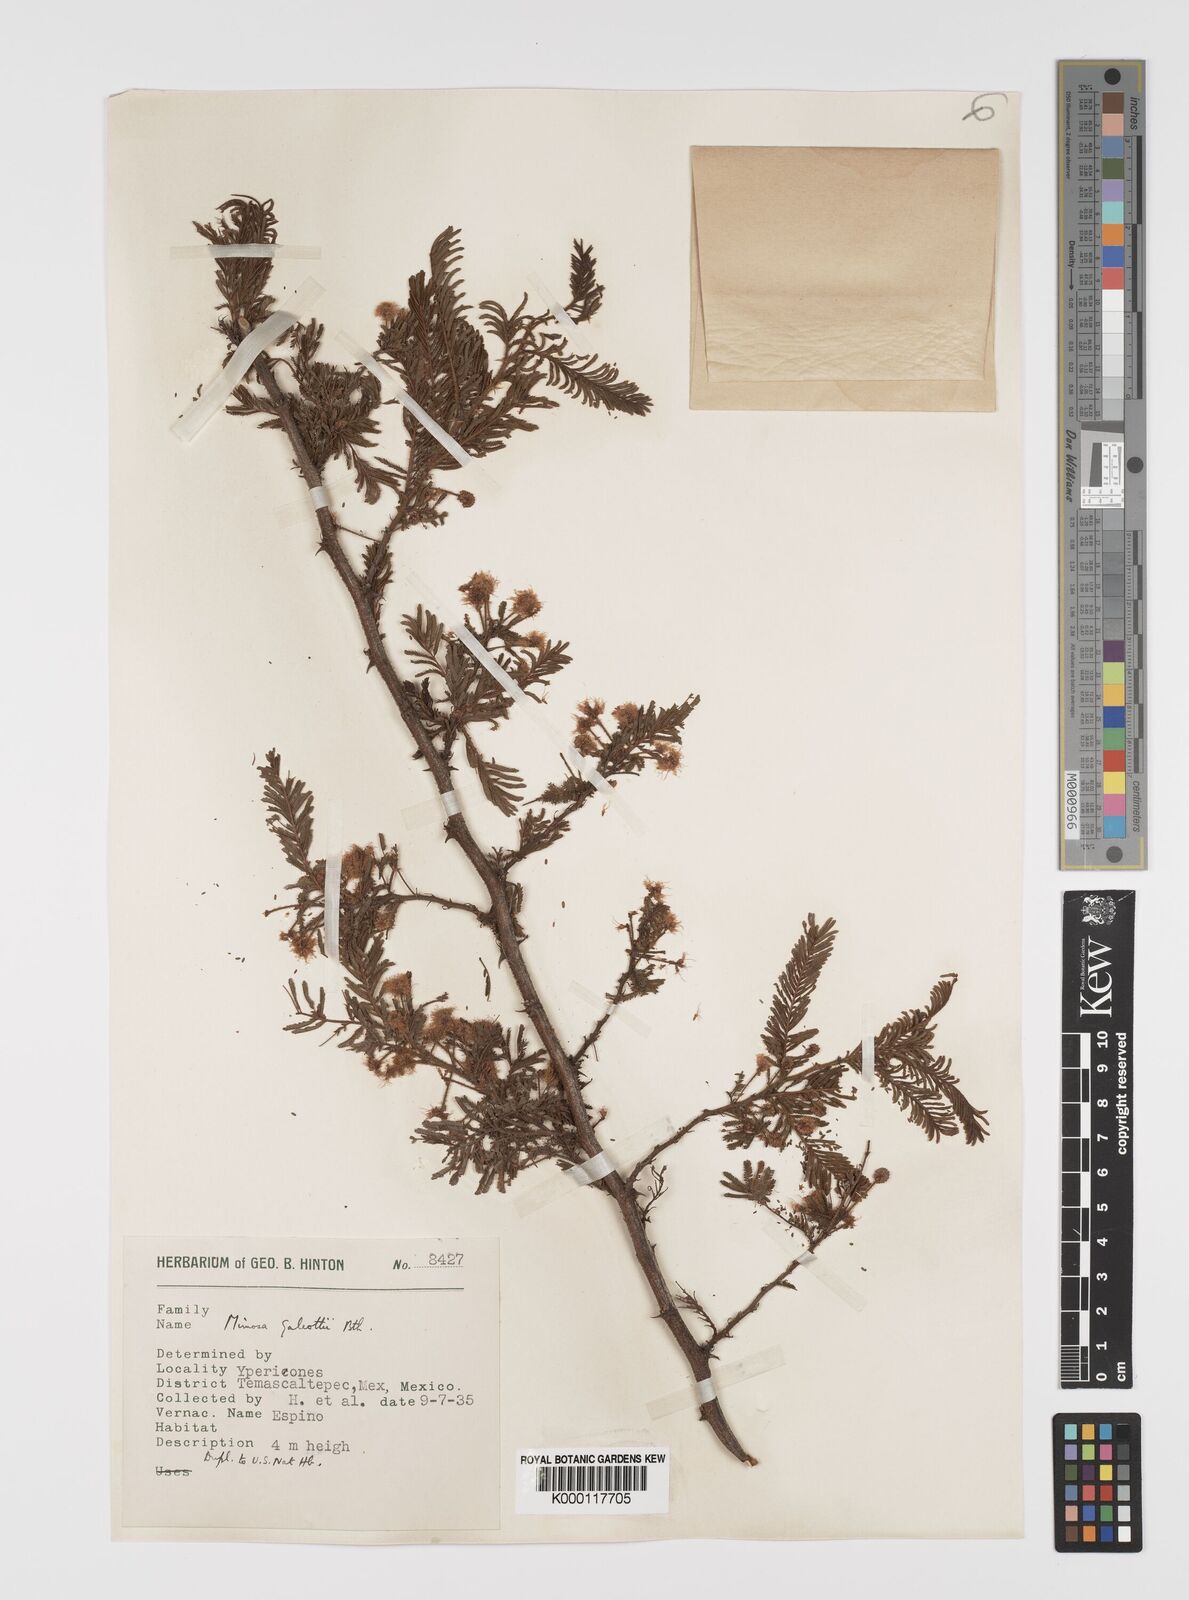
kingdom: Plantae
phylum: Tracheophyta
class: Magnoliopsida
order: Fabales
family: Fabaceae
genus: Mimosa
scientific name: Mimosa galeottii
